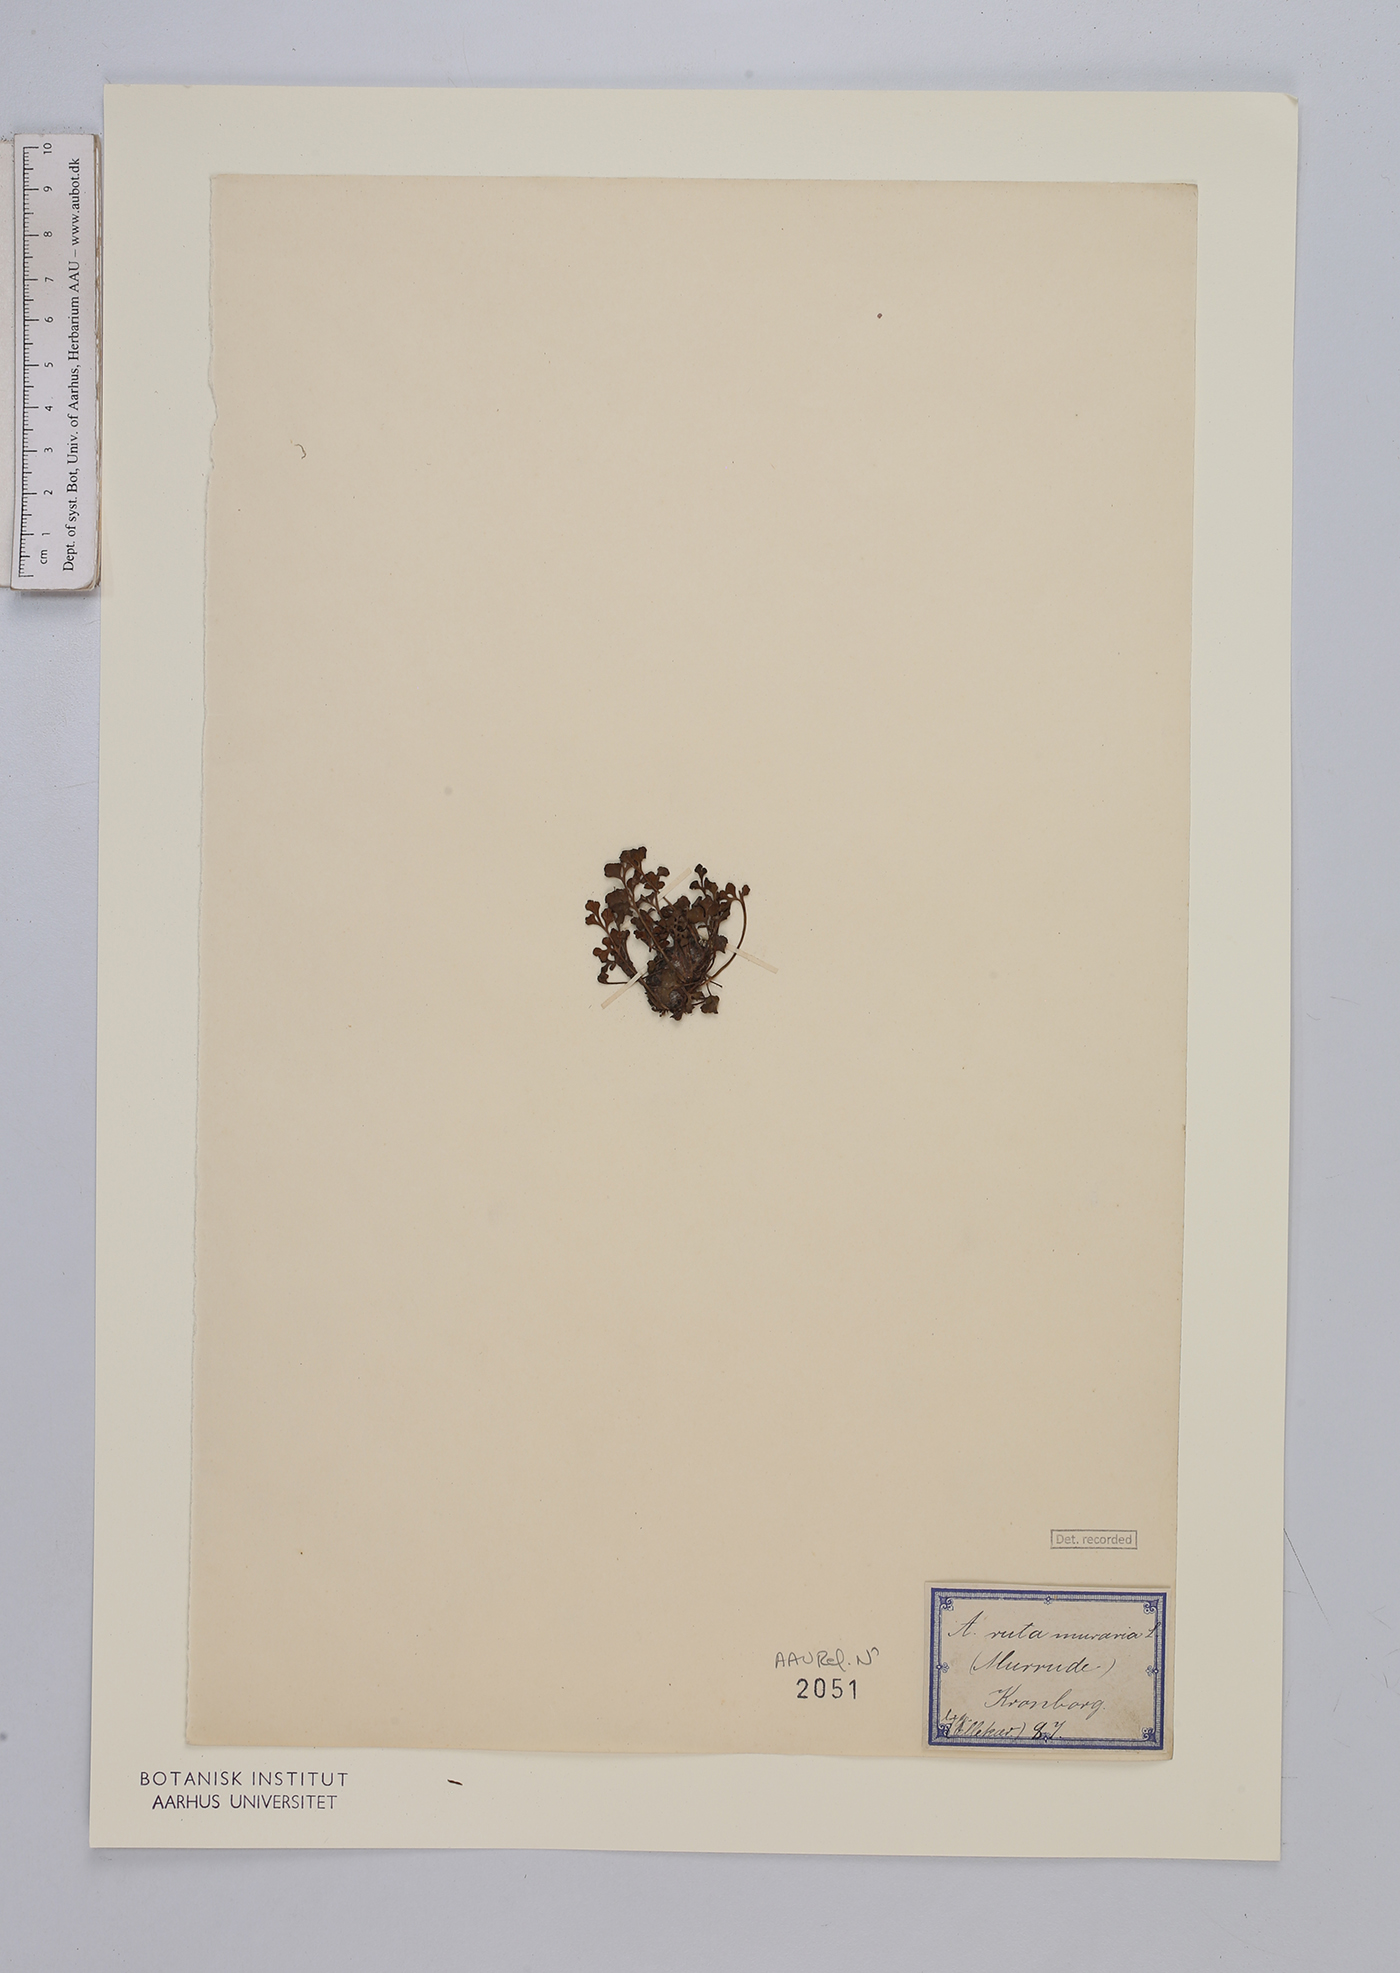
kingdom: Plantae
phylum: Tracheophyta
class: Polypodiopsida
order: Polypodiales
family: Aspleniaceae
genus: Asplenium
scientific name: Asplenium ruta-muraria
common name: Wall-rue
